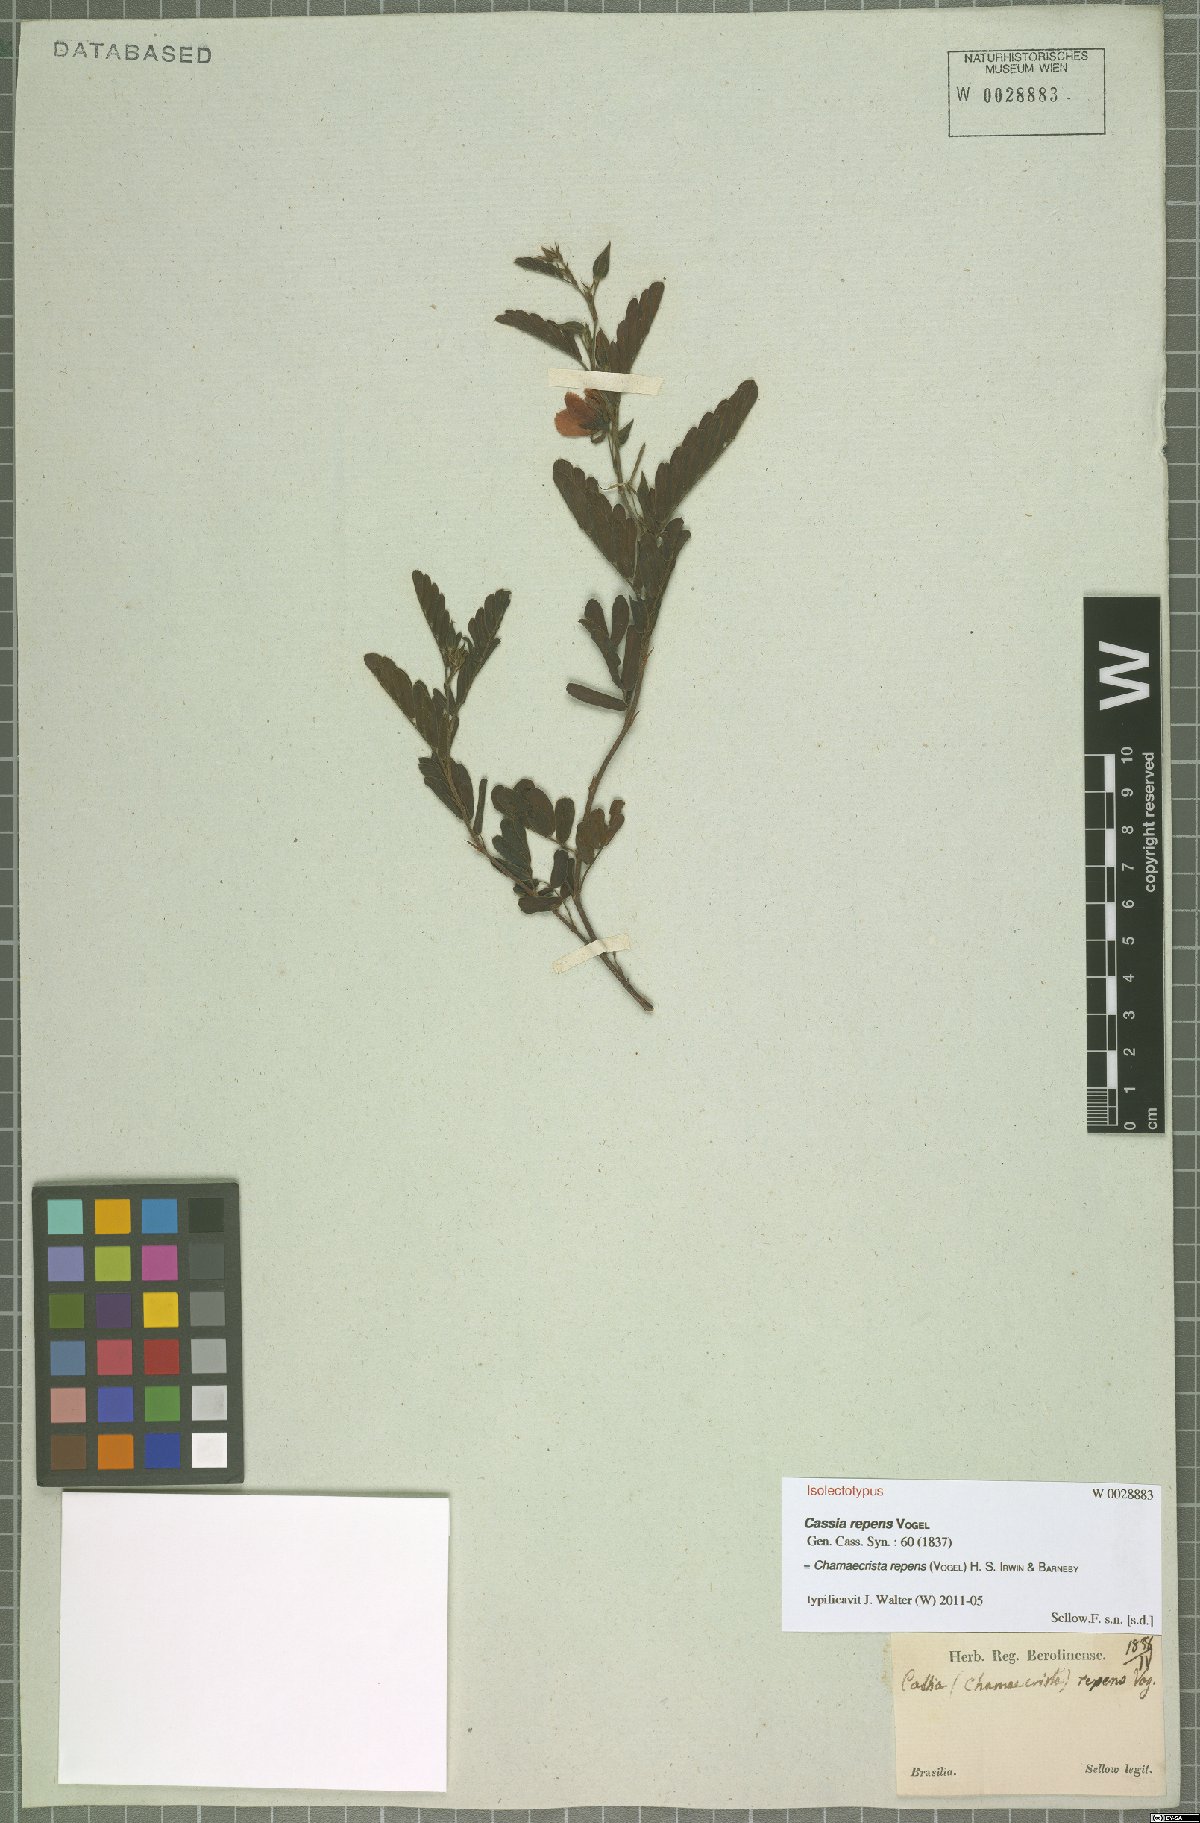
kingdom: Plantae
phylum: Tracheophyta
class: Magnoliopsida
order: Fabales
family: Fabaceae
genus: Chamaecrista
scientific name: Chamaecrista repens
